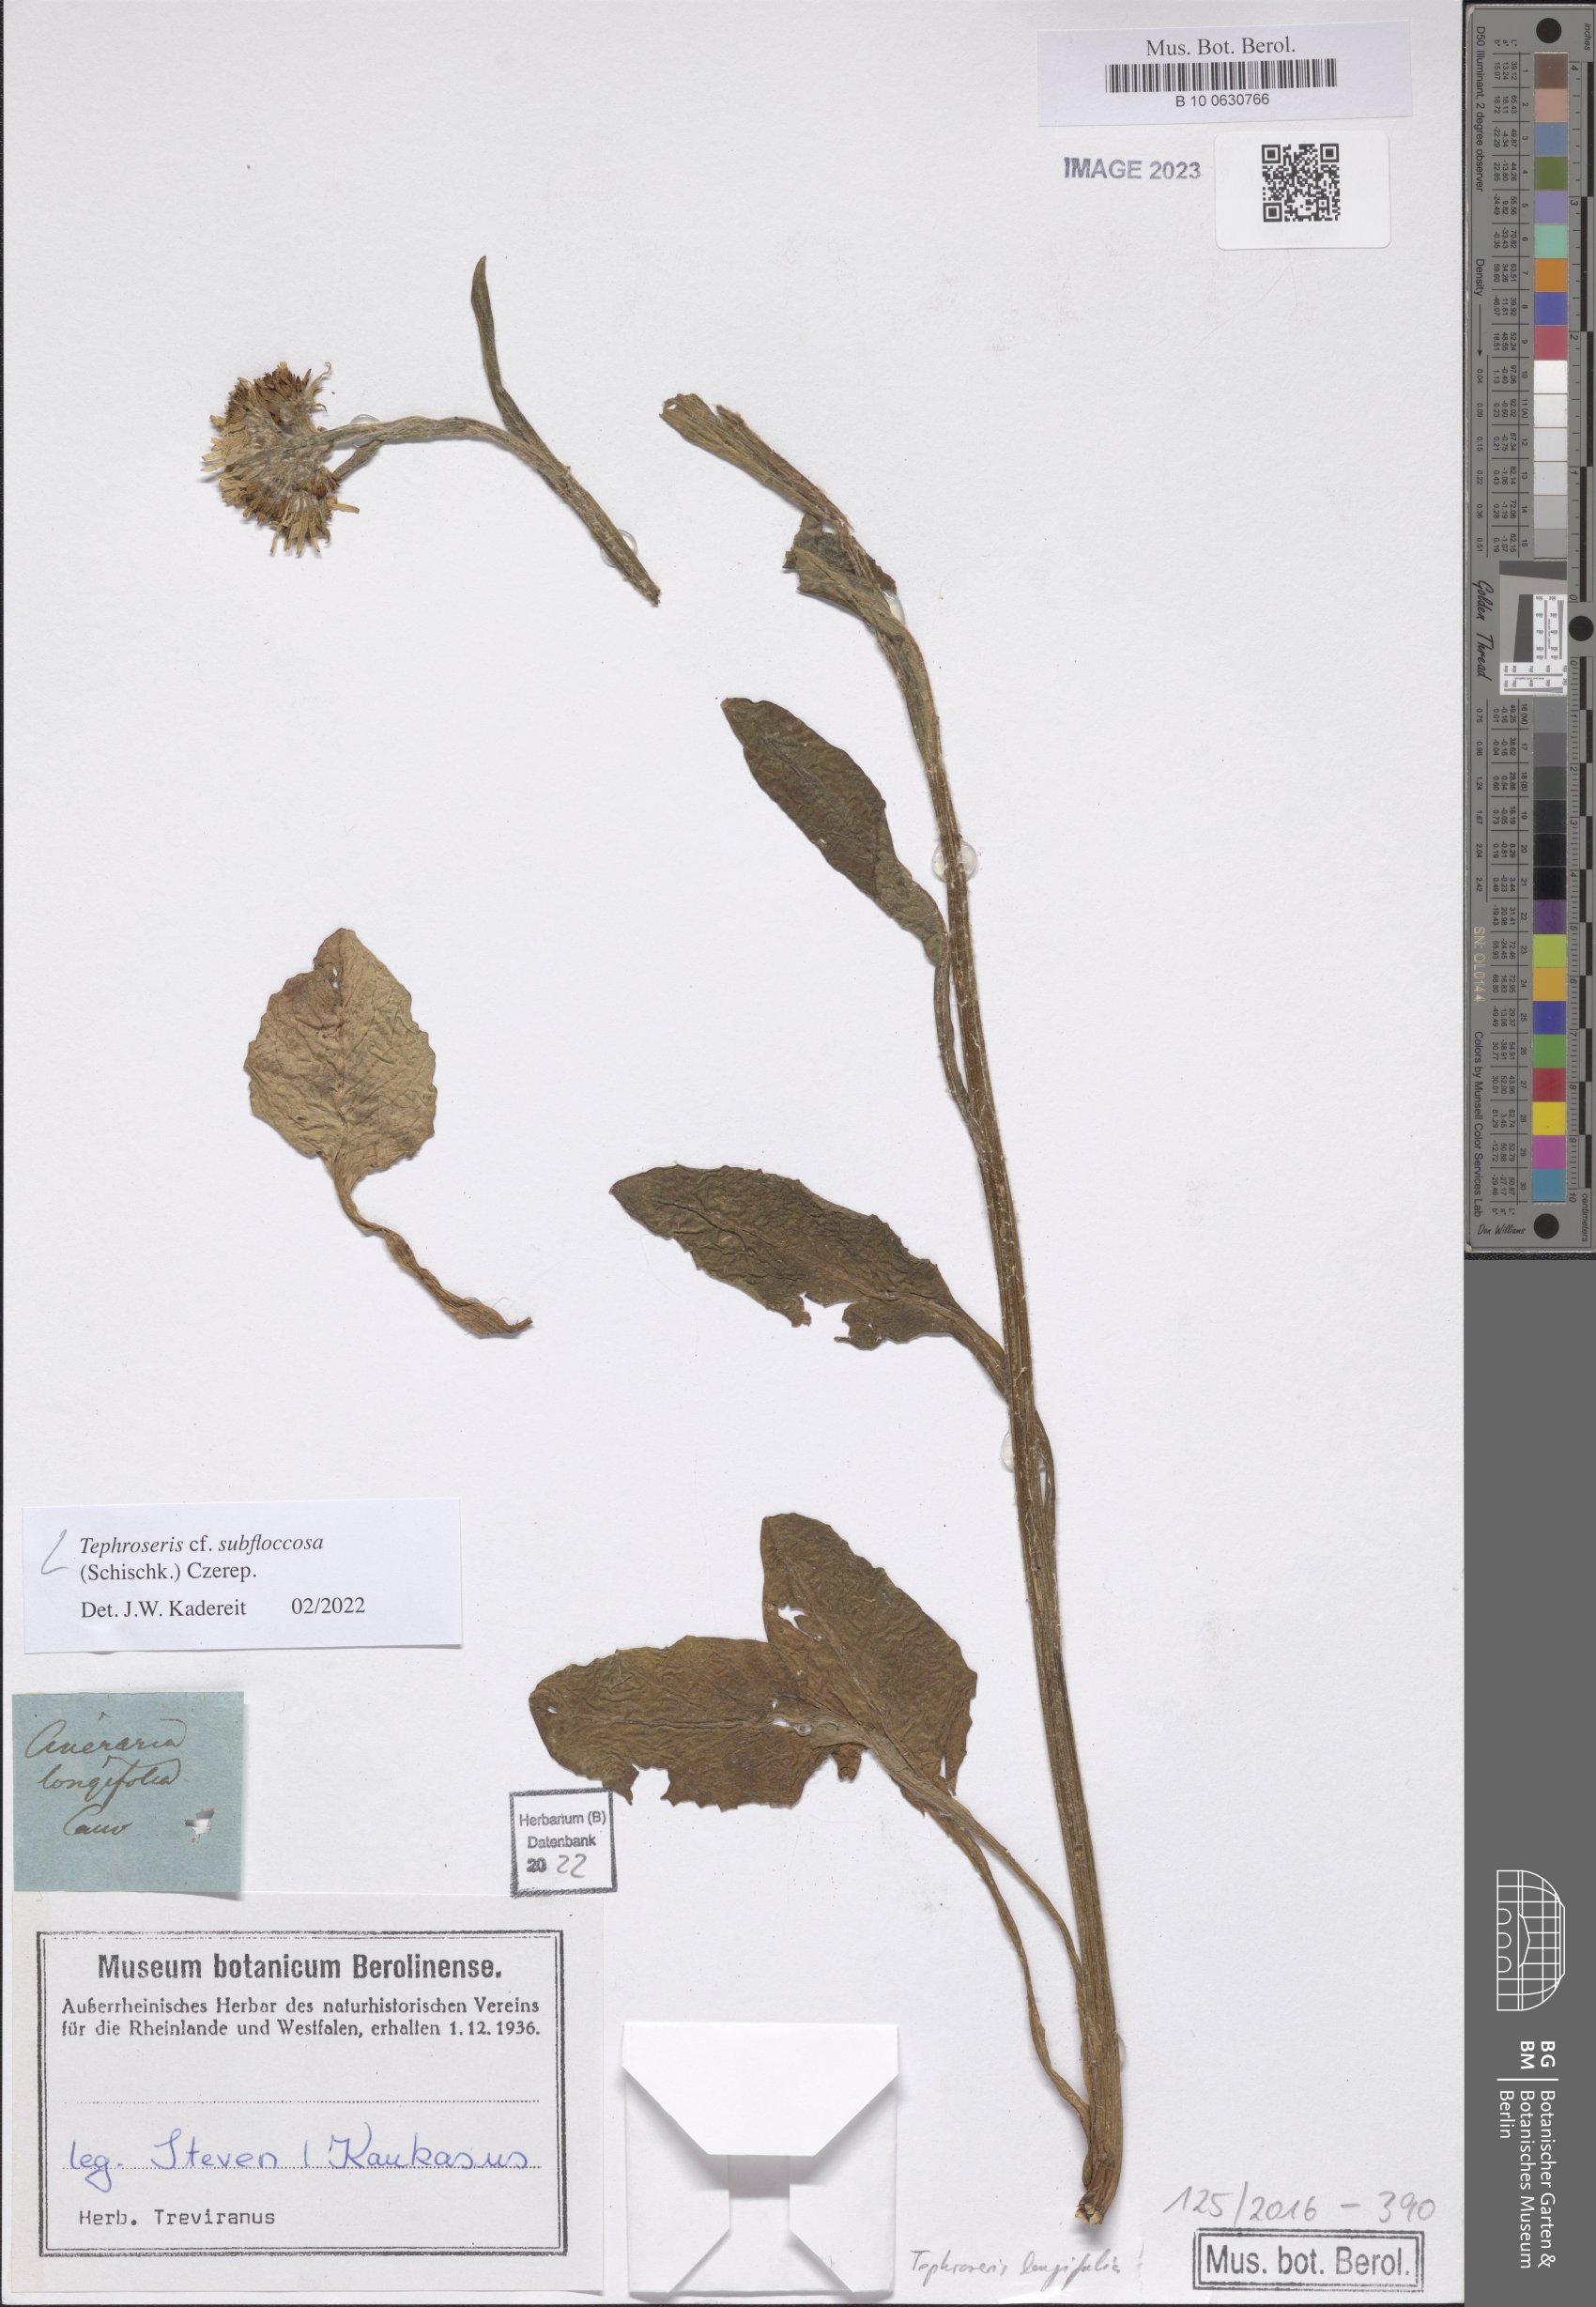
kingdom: Plantae
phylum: Tracheophyta
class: Magnoliopsida
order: Asterales
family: Asteraceae
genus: Tephroseris
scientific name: Tephroseris cladobotrys
